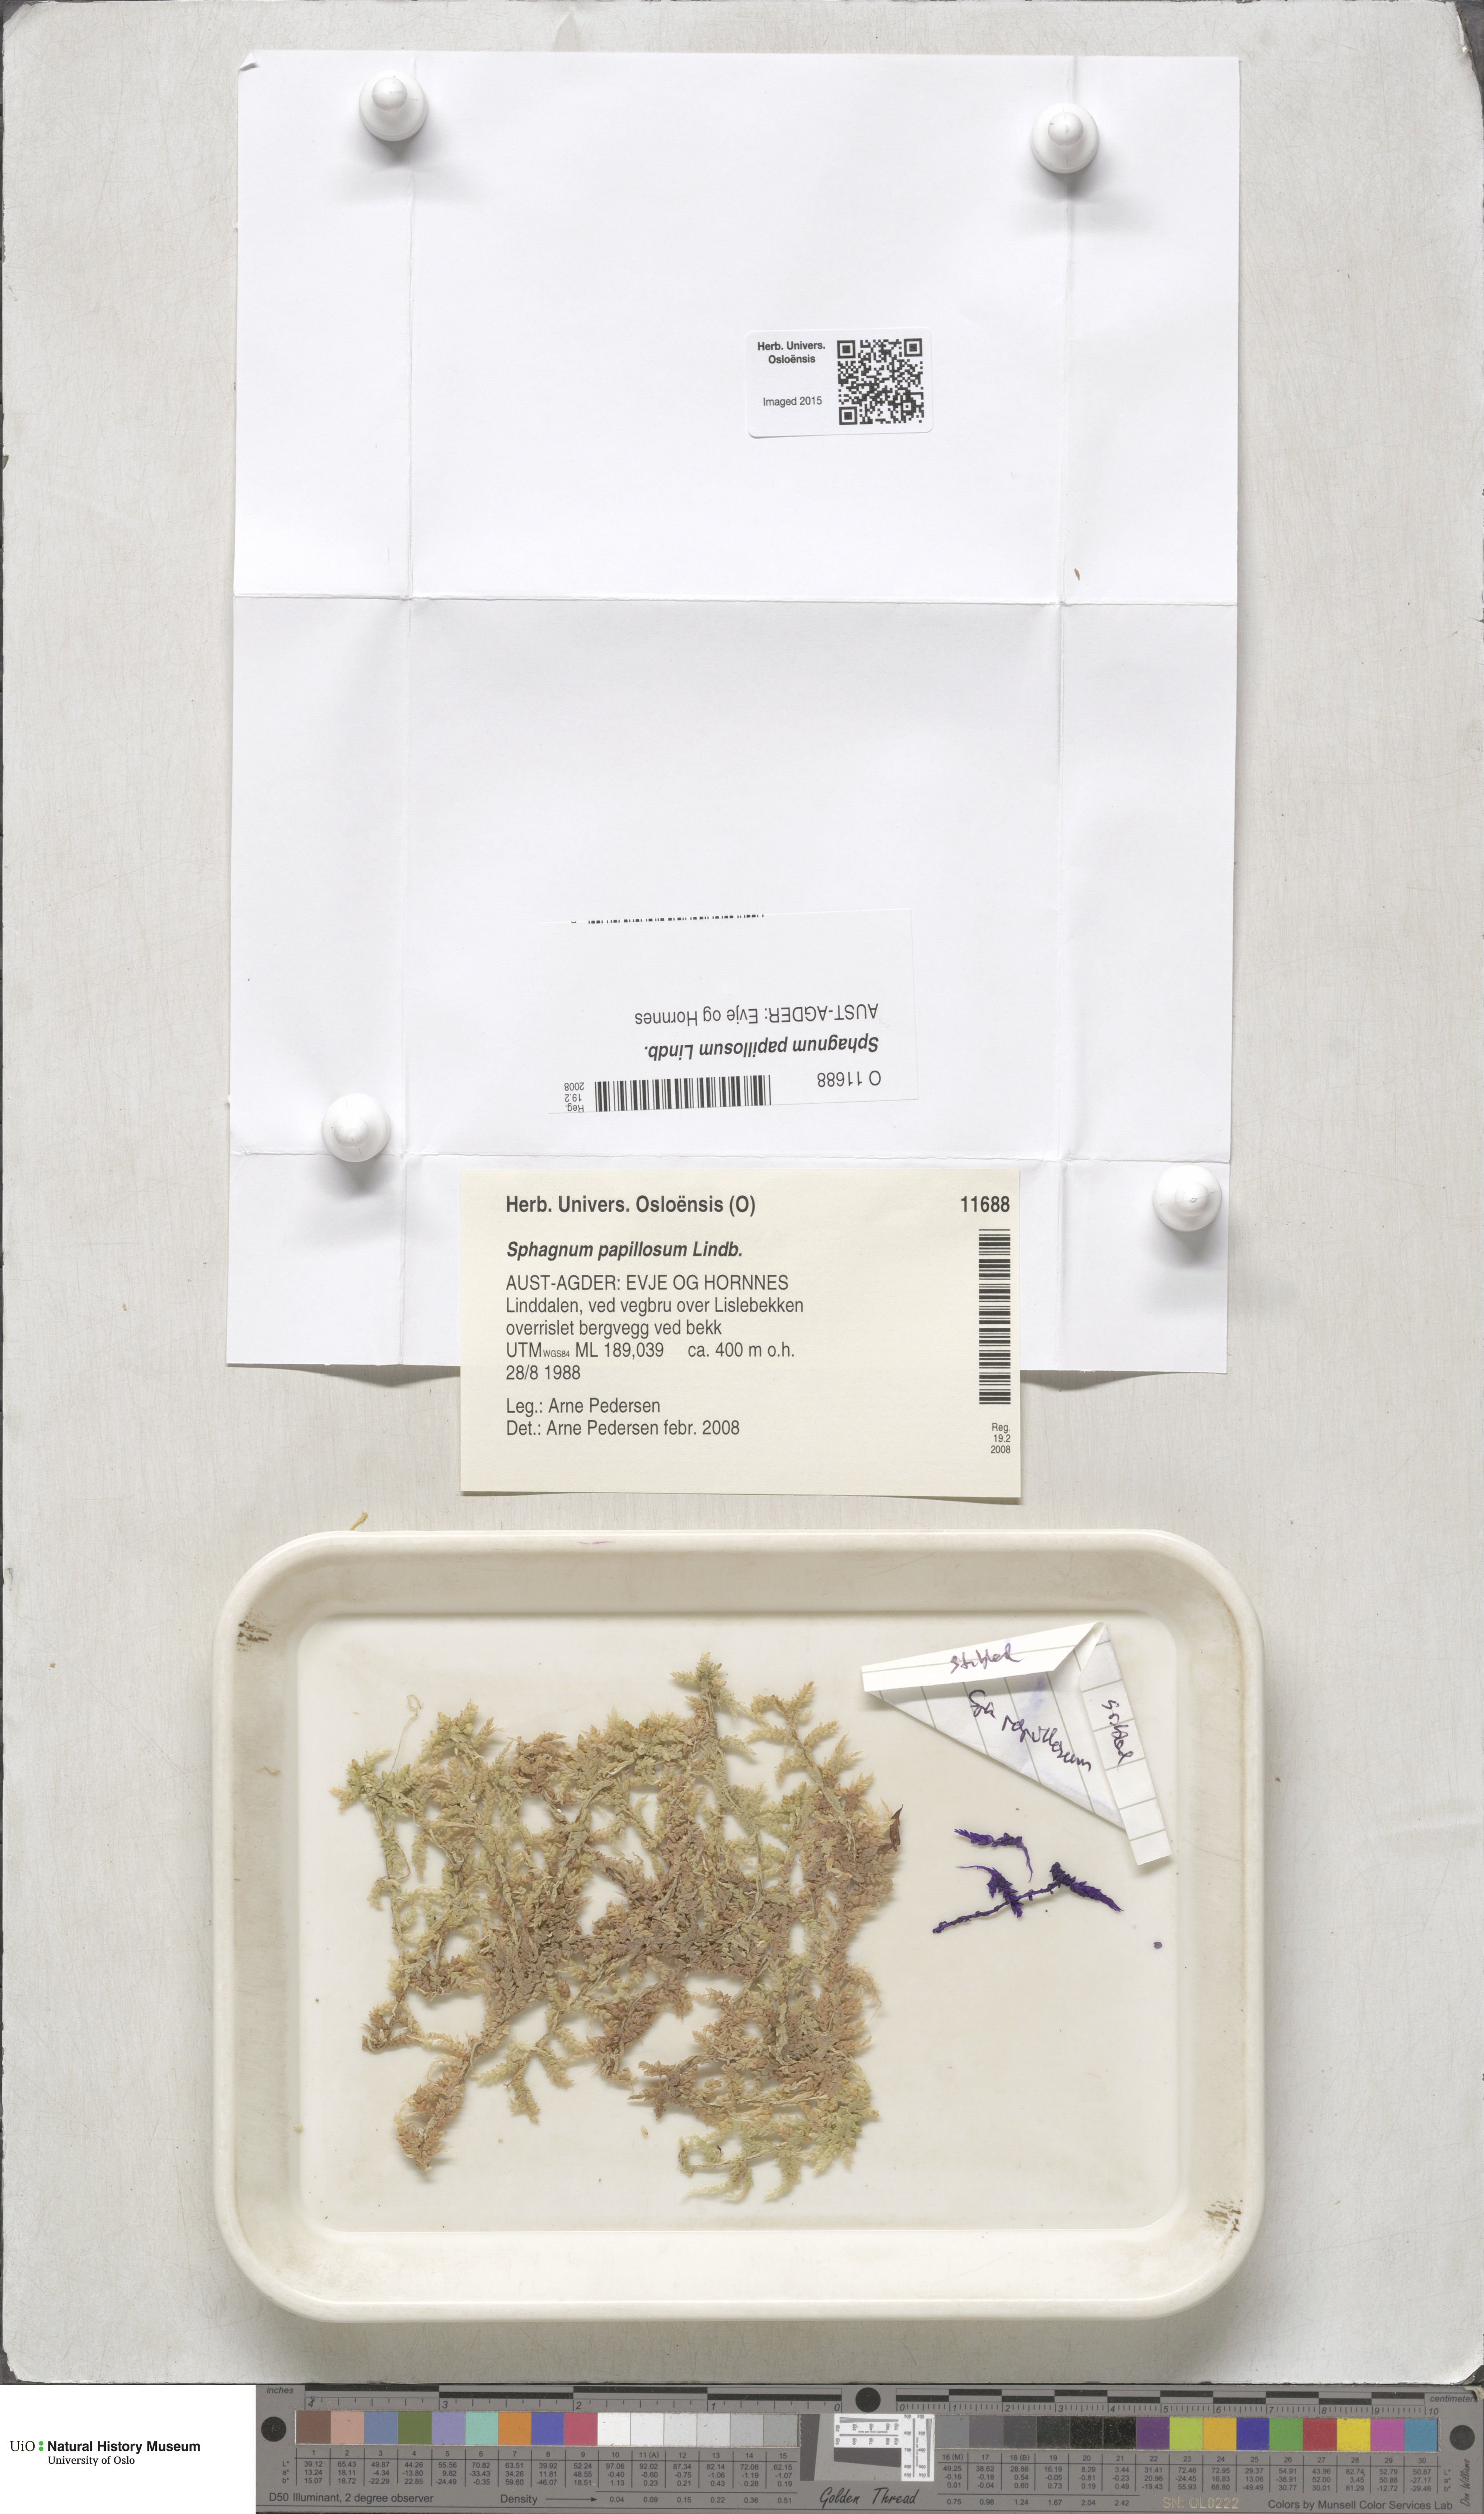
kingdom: Plantae
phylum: Bryophyta
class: Sphagnopsida
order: Sphagnales
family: Sphagnaceae
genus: Sphagnum
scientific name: Sphagnum papillosum
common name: Papillose peat moss
